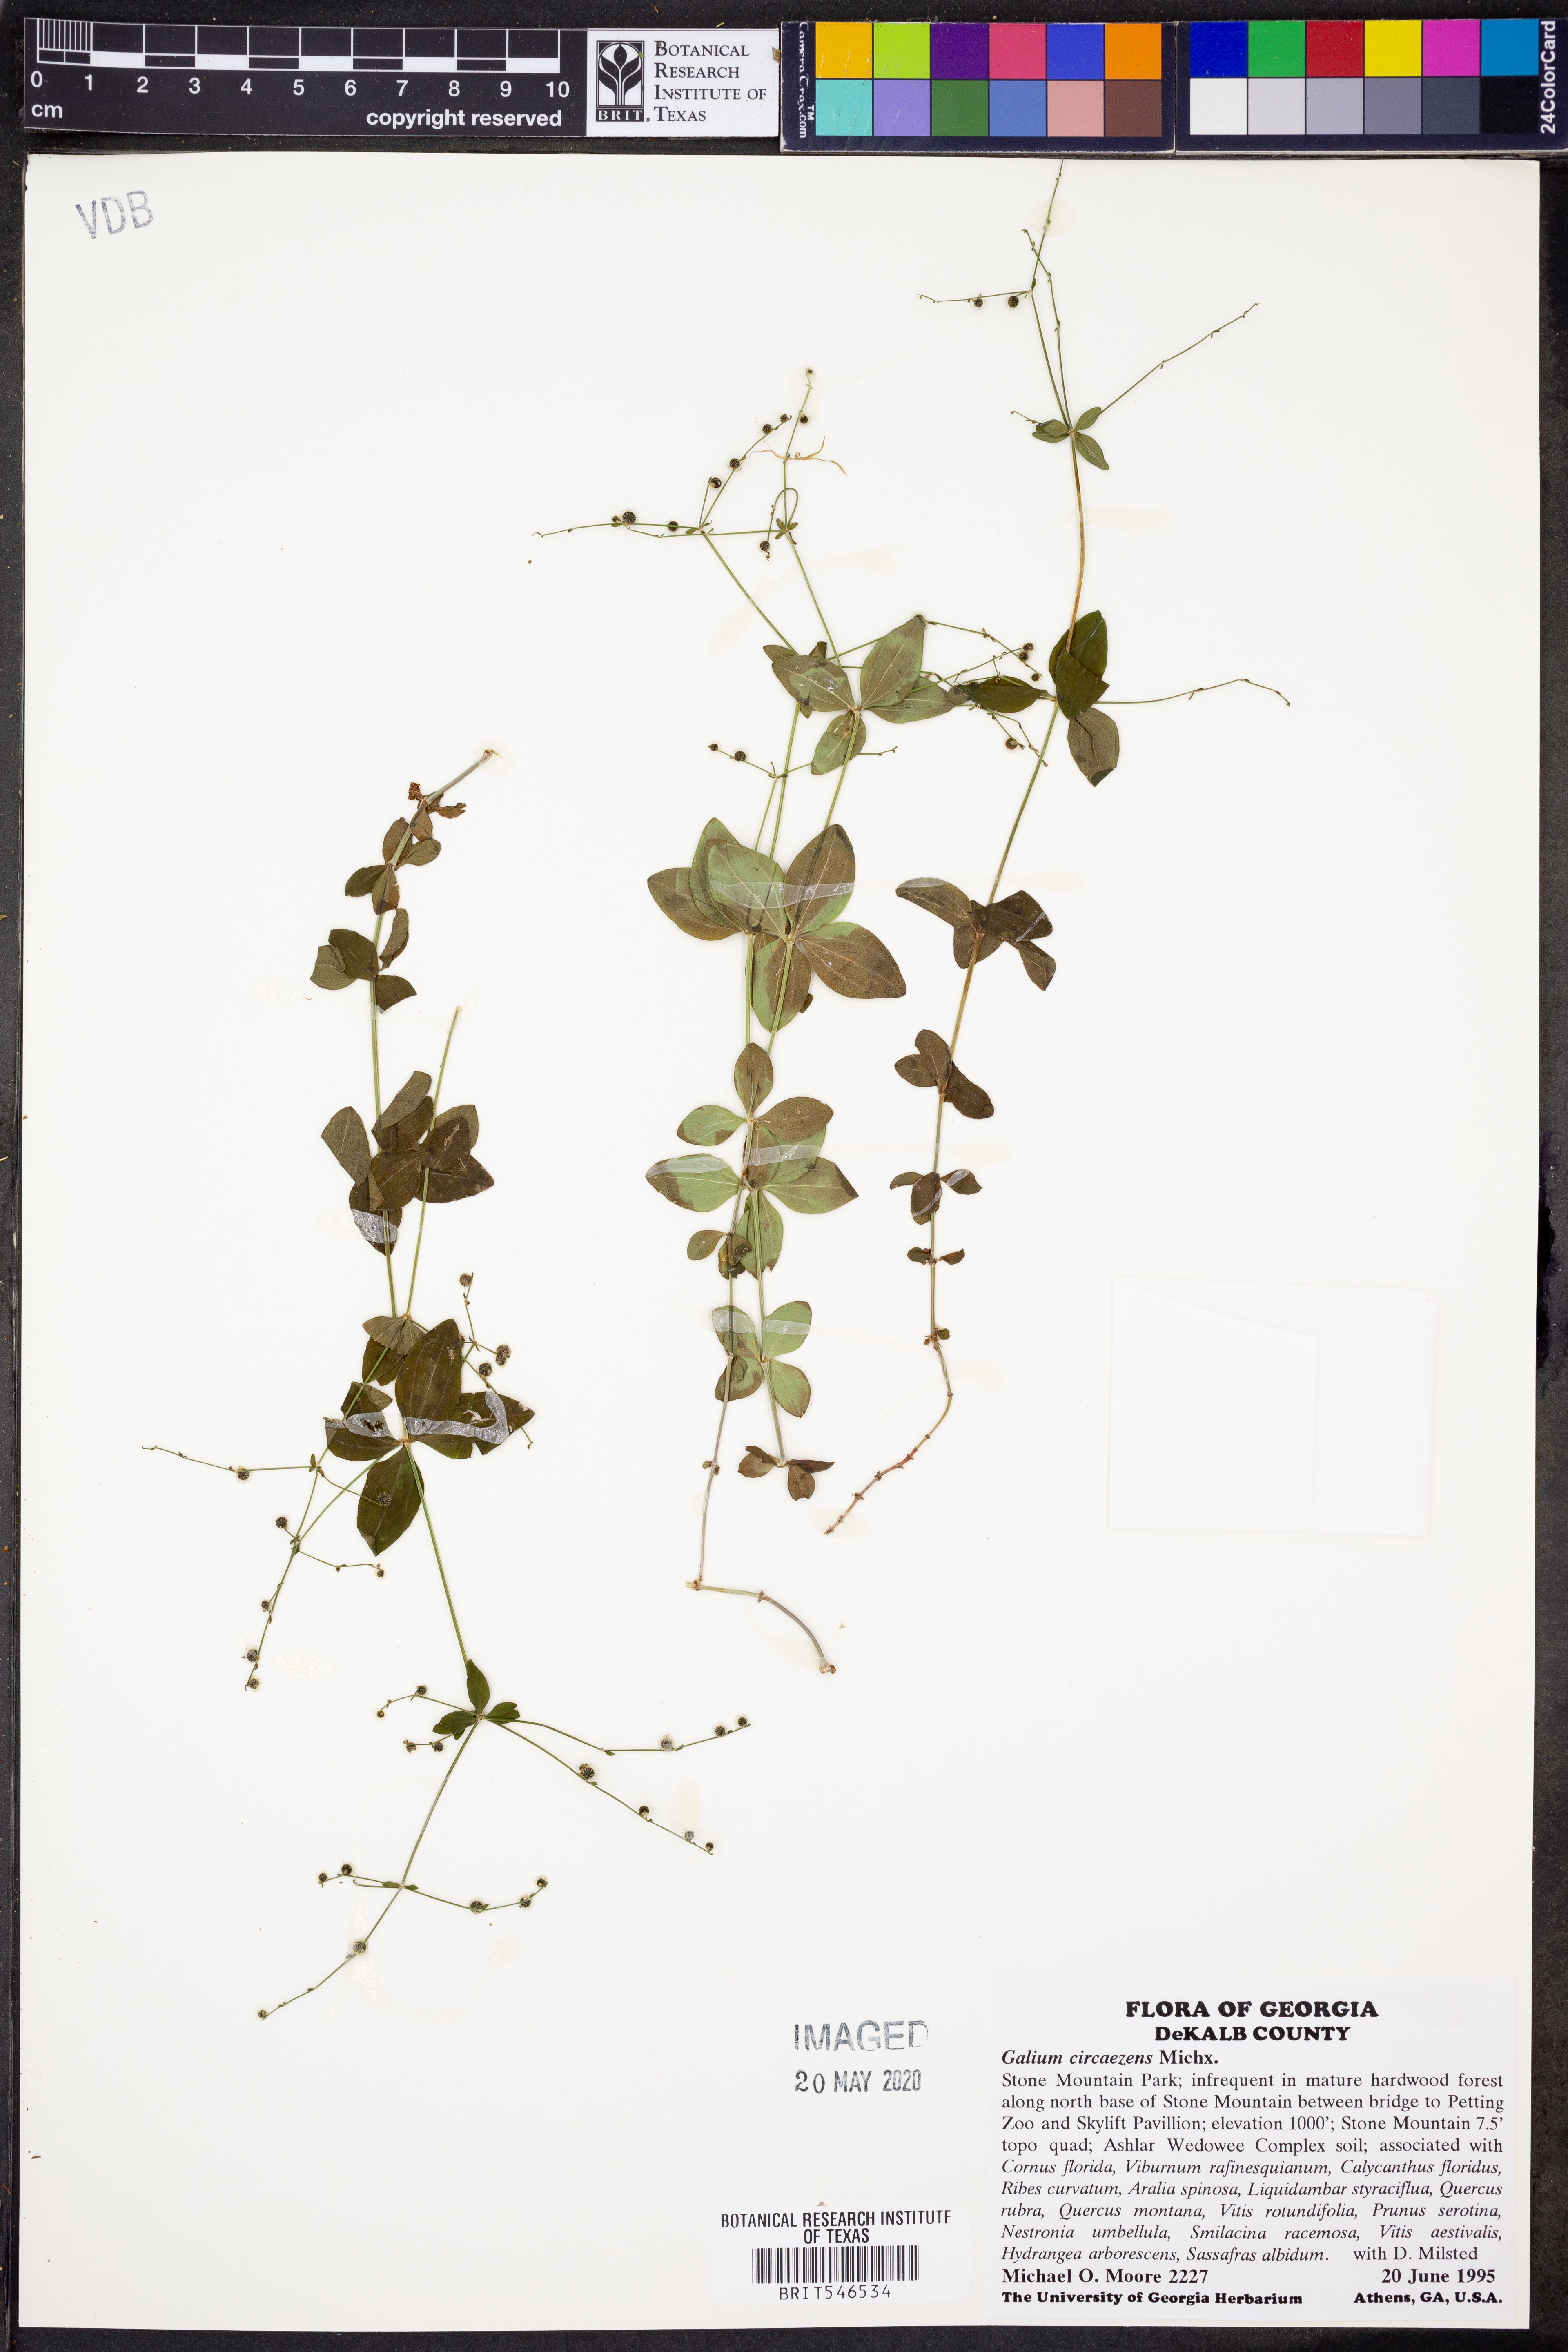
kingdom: Plantae
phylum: Tracheophyta
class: Magnoliopsida
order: Gentianales
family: Rubiaceae
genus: Galium
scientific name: Galium circaezans
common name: Forest bedstraw
